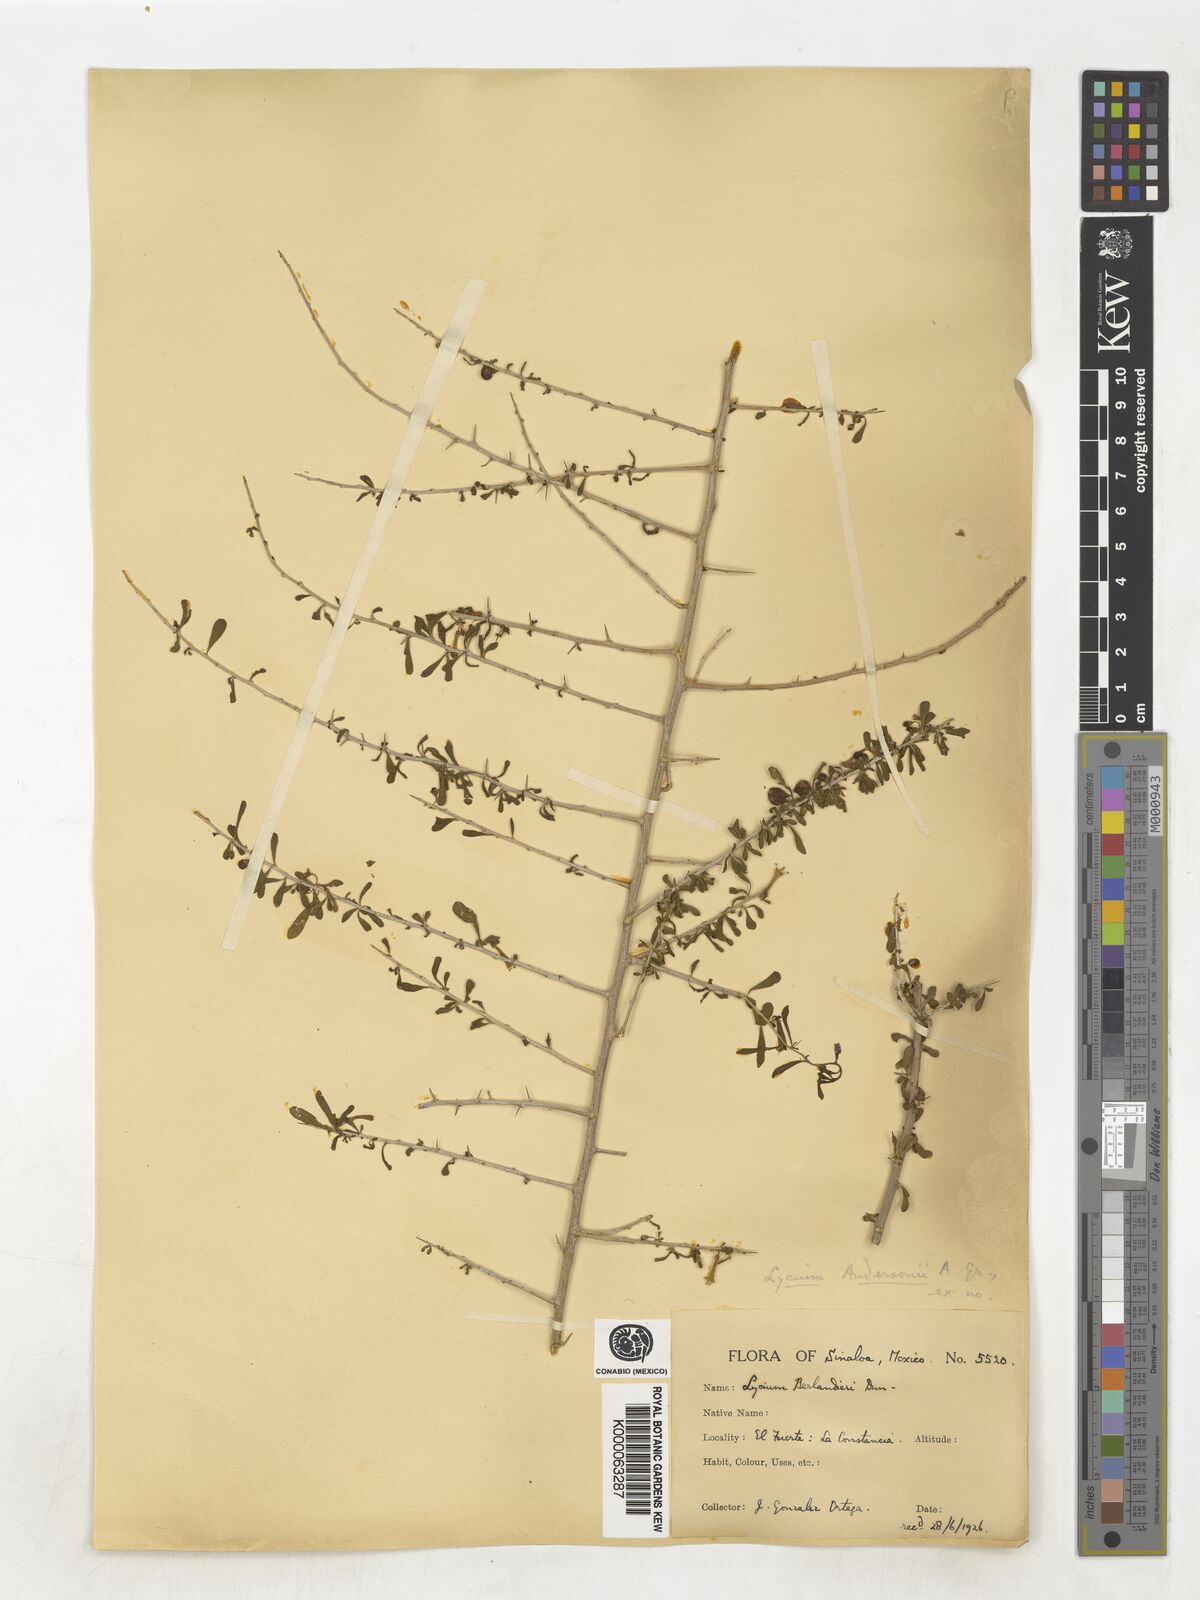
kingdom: Plantae
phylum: Tracheophyta
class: Magnoliopsida
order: Solanales
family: Solanaceae
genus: Lycium
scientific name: Lycium andersonii
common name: Water-jacket
